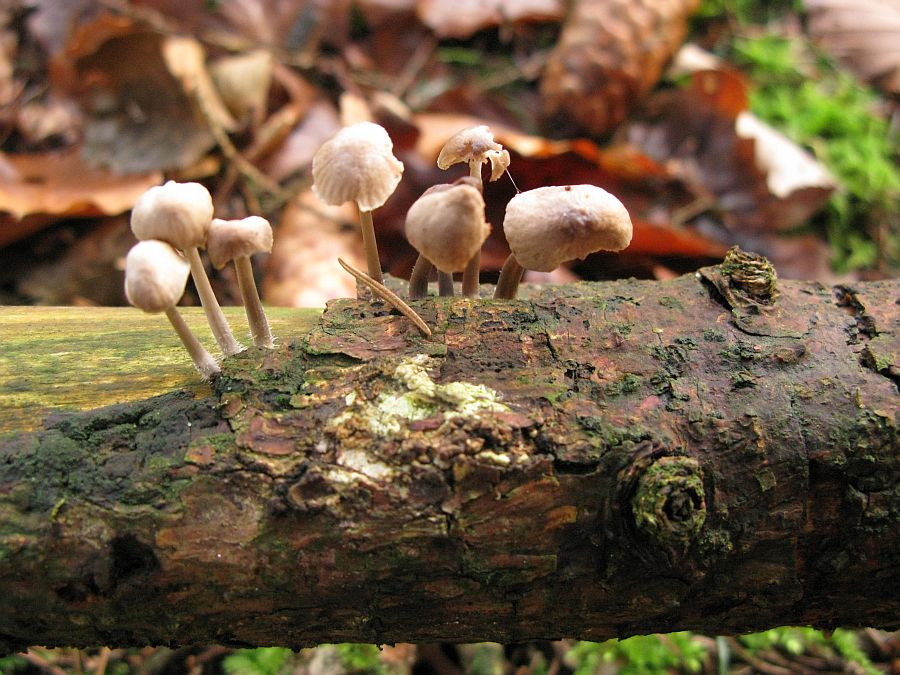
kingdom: Fungi
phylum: Basidiomycota
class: Agaricomycetes
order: Agaricales
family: Mycenaceae
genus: Mycena
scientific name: Mycena metata
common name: rødlig huesvamp
